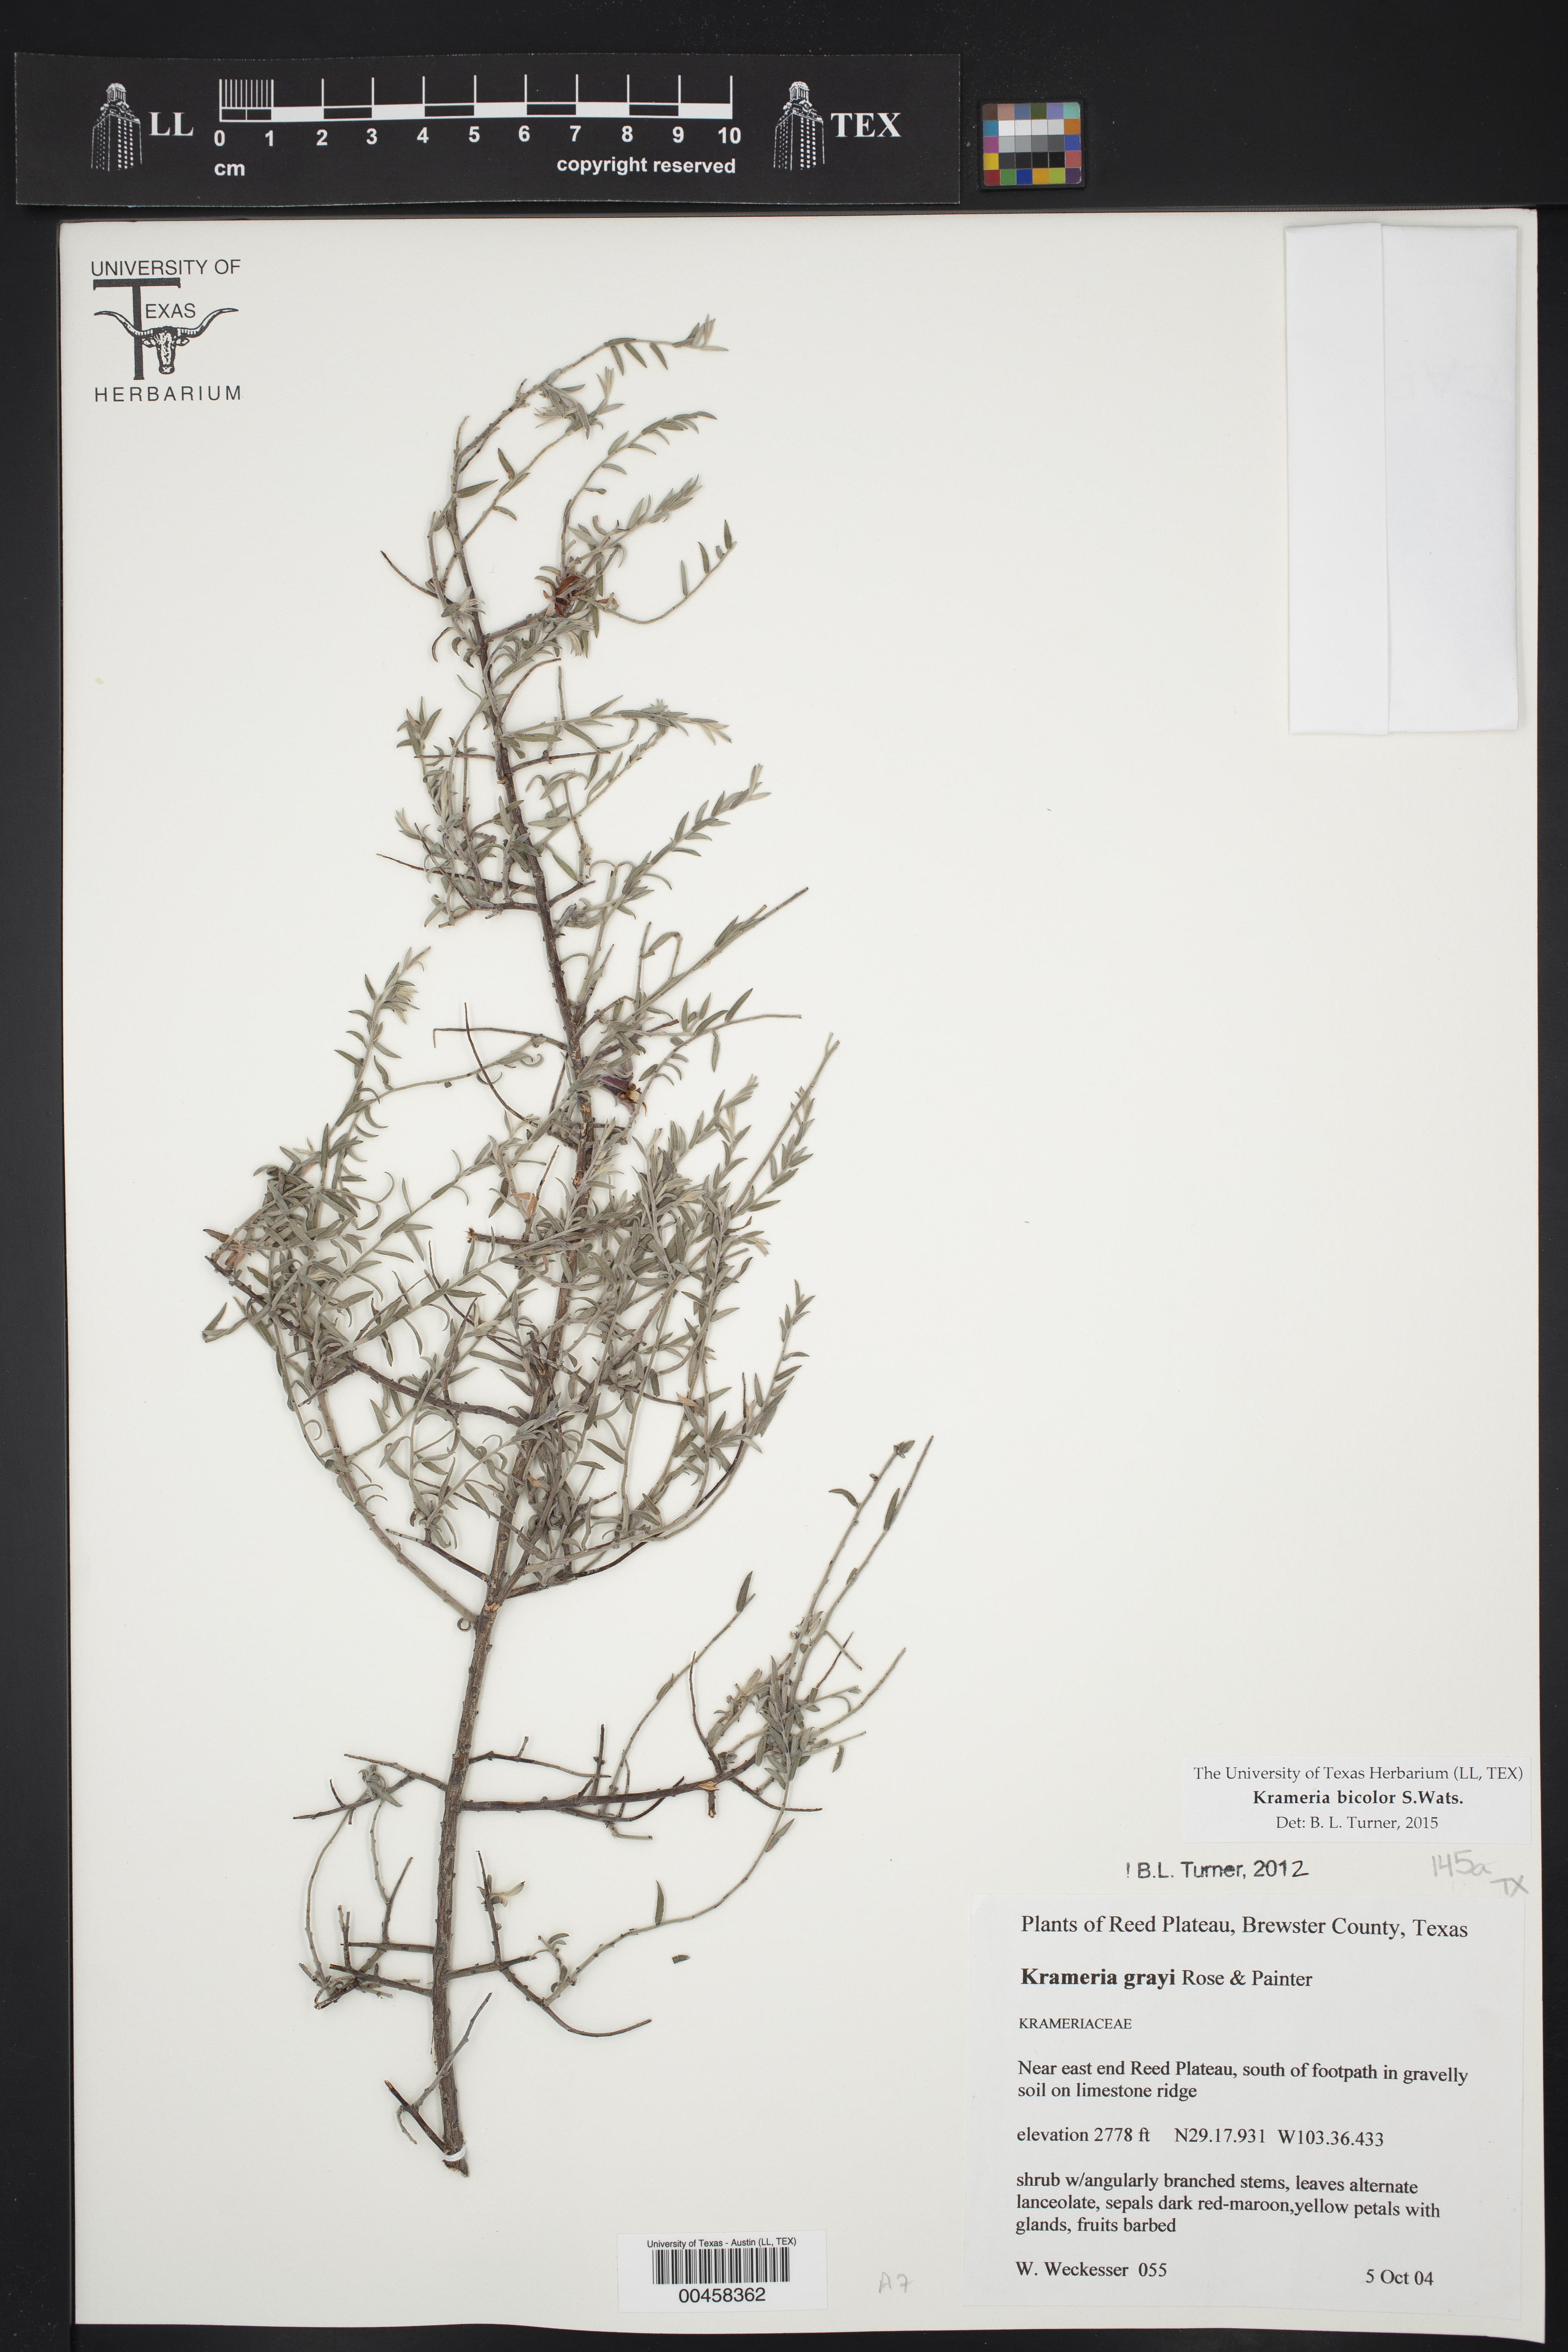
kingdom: Plantae
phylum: Tracheophyta
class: Magnoliopsida
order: Zygophyllales
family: Krameriaceae
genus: Krameria
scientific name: Krameria bicolor
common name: White ratany
